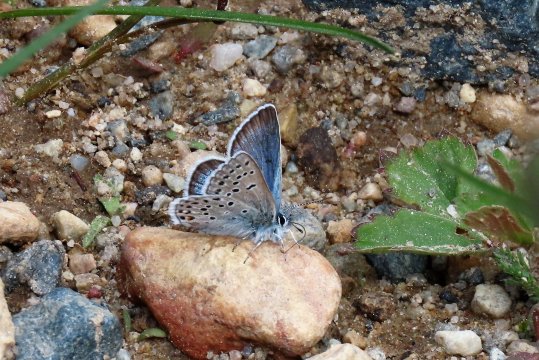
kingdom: Animalia
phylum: Arthropoda
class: Insecta
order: Lepidoptera
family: Lycaenidae
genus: Plebejus
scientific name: Plebejus saepiolus
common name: Greenish Blue
